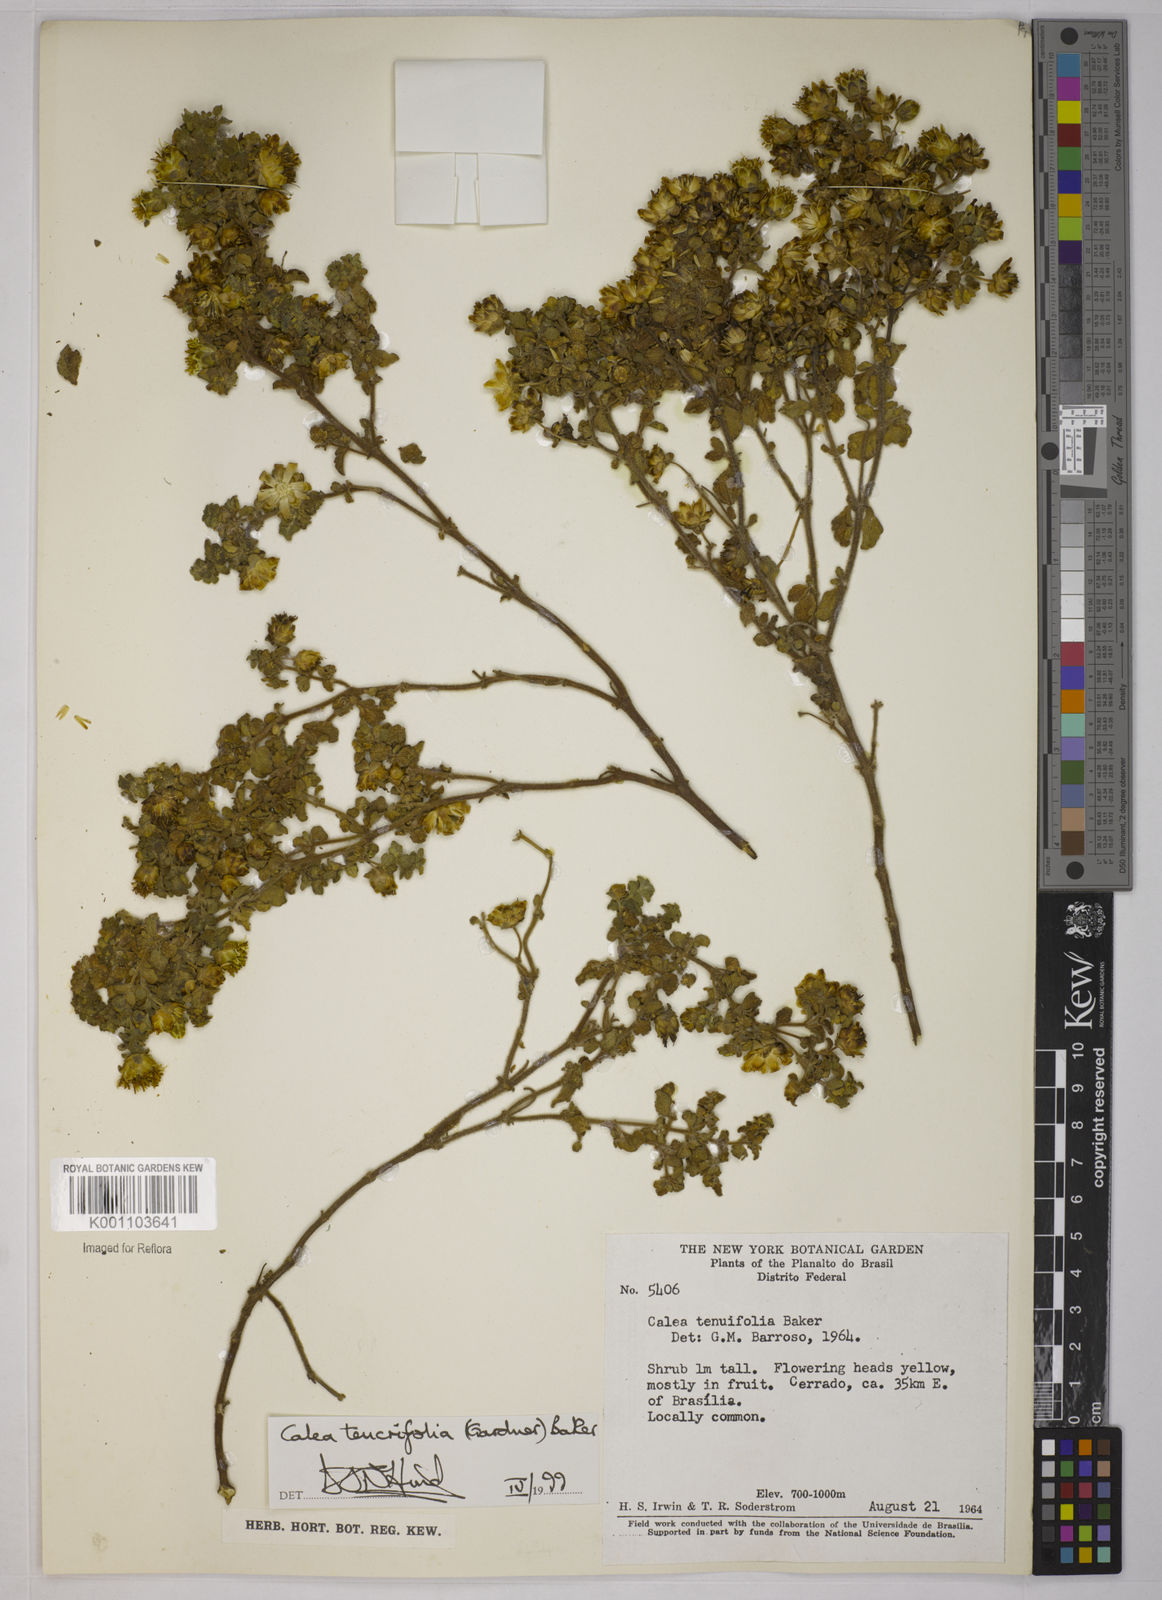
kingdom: Plantae
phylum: Tracheophyta
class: Magnoliopsida
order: Asterales
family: Asteraceae
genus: Calea
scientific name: Calea teucriifolia
